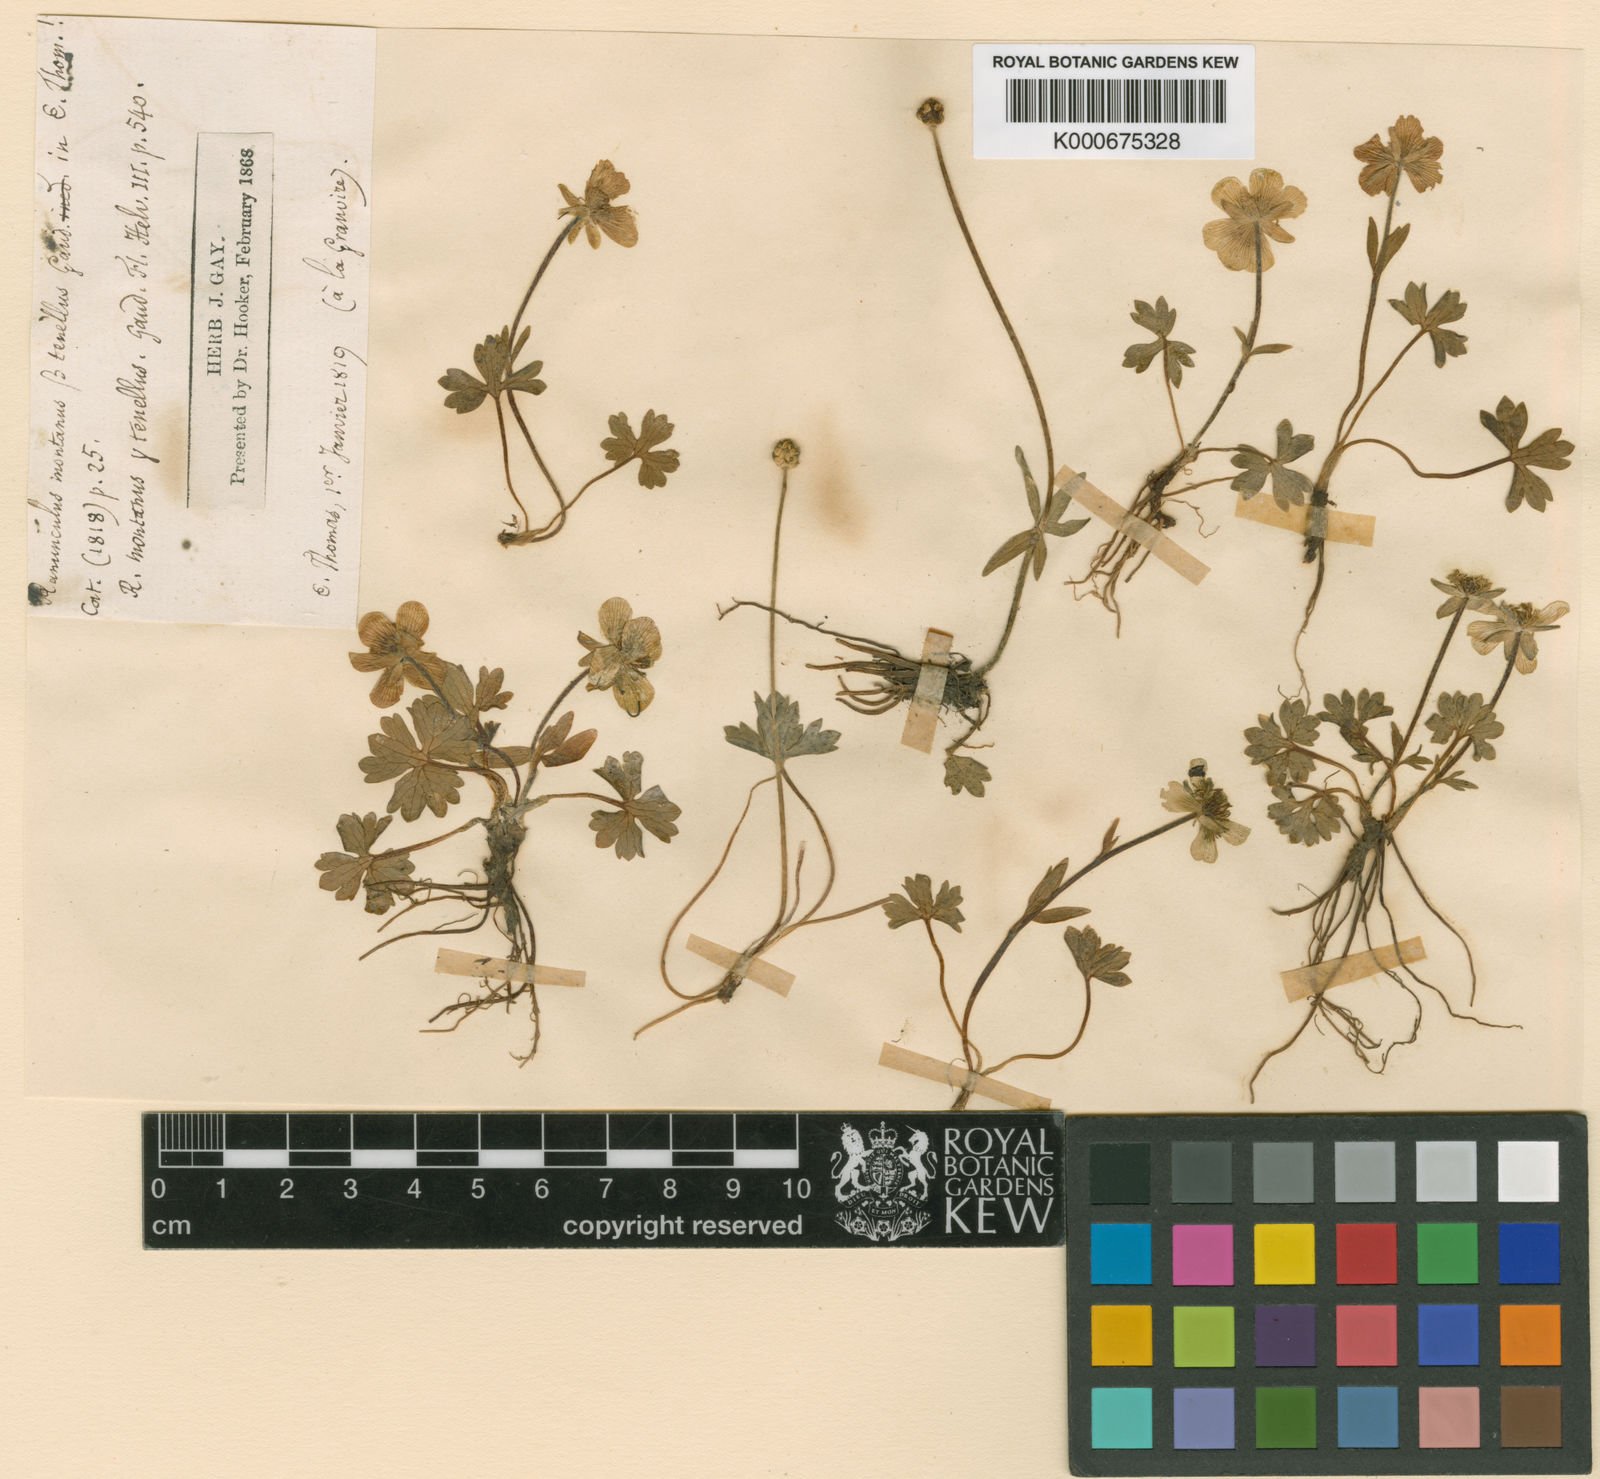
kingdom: Plantae
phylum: Tracheophyta
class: Magnoliopsida
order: Ranunculales
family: Ranunculaceae
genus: Ranunculus
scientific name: Ranunculus carinthiacus
